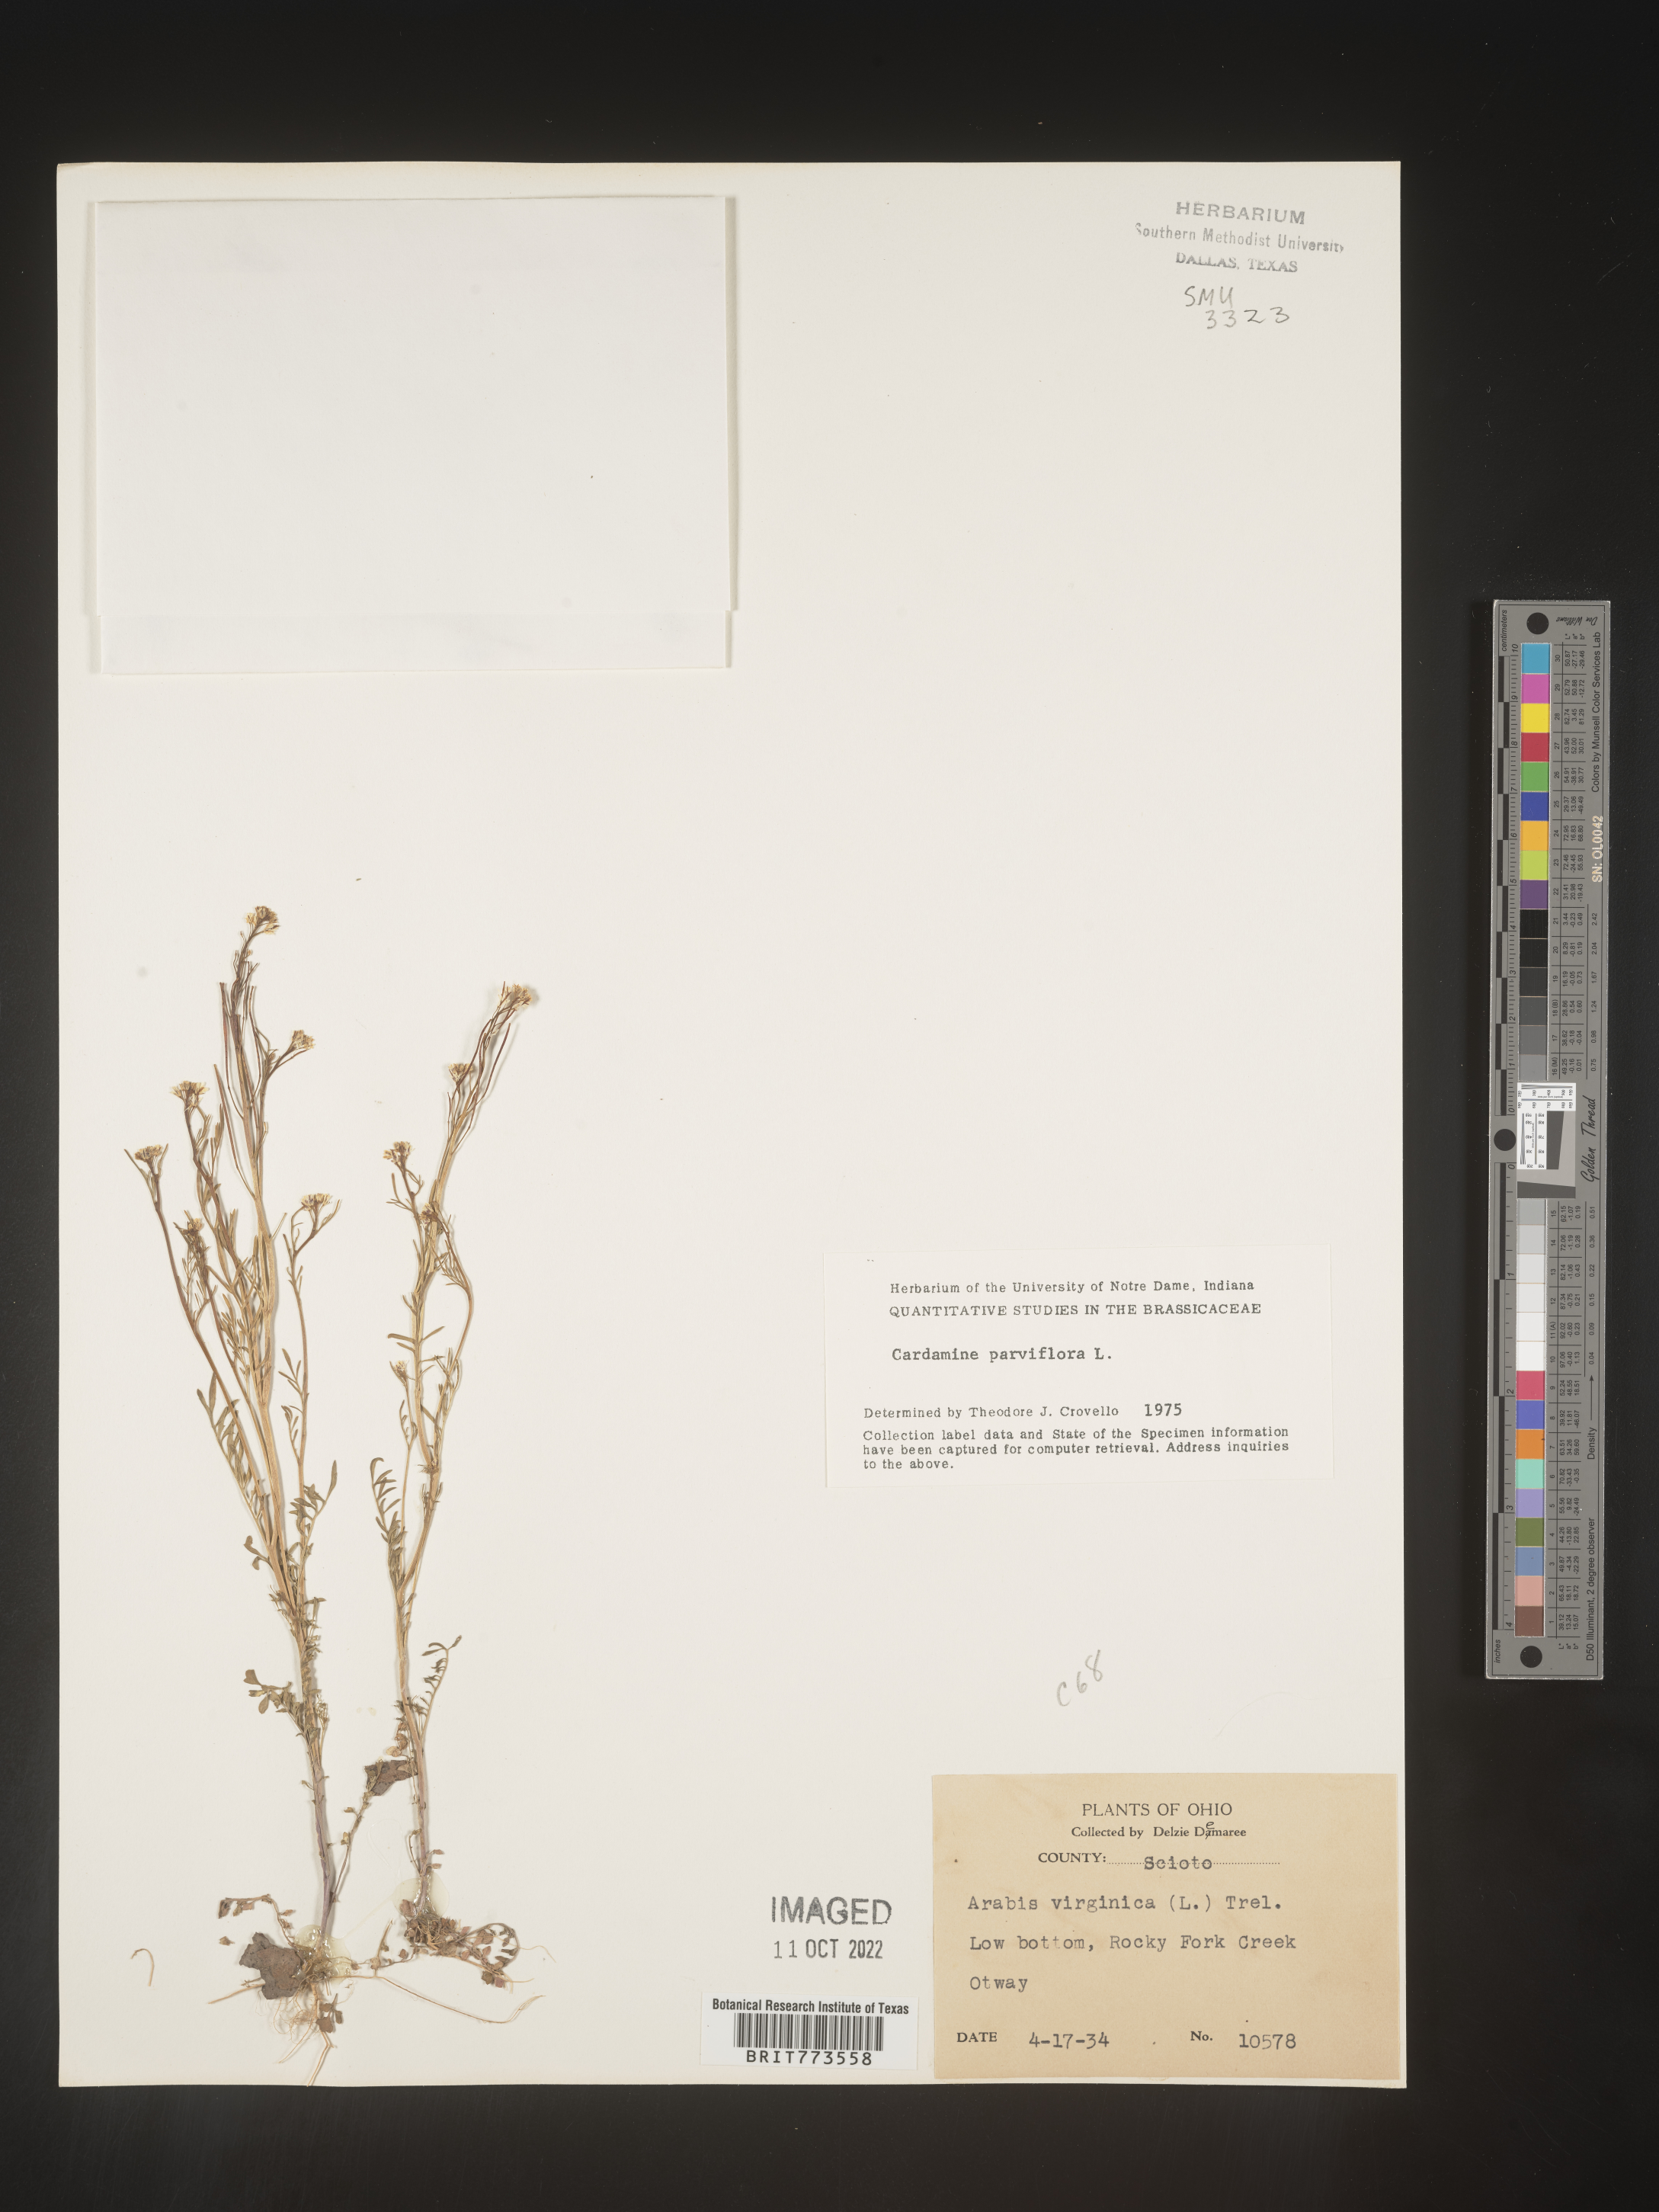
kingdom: Plantae
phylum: Tracheophyta
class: Magnoliopsida
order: Brassicales
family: Brassicaceae
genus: Cardamine
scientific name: Cardamine parviflora
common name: Sand bittercress
